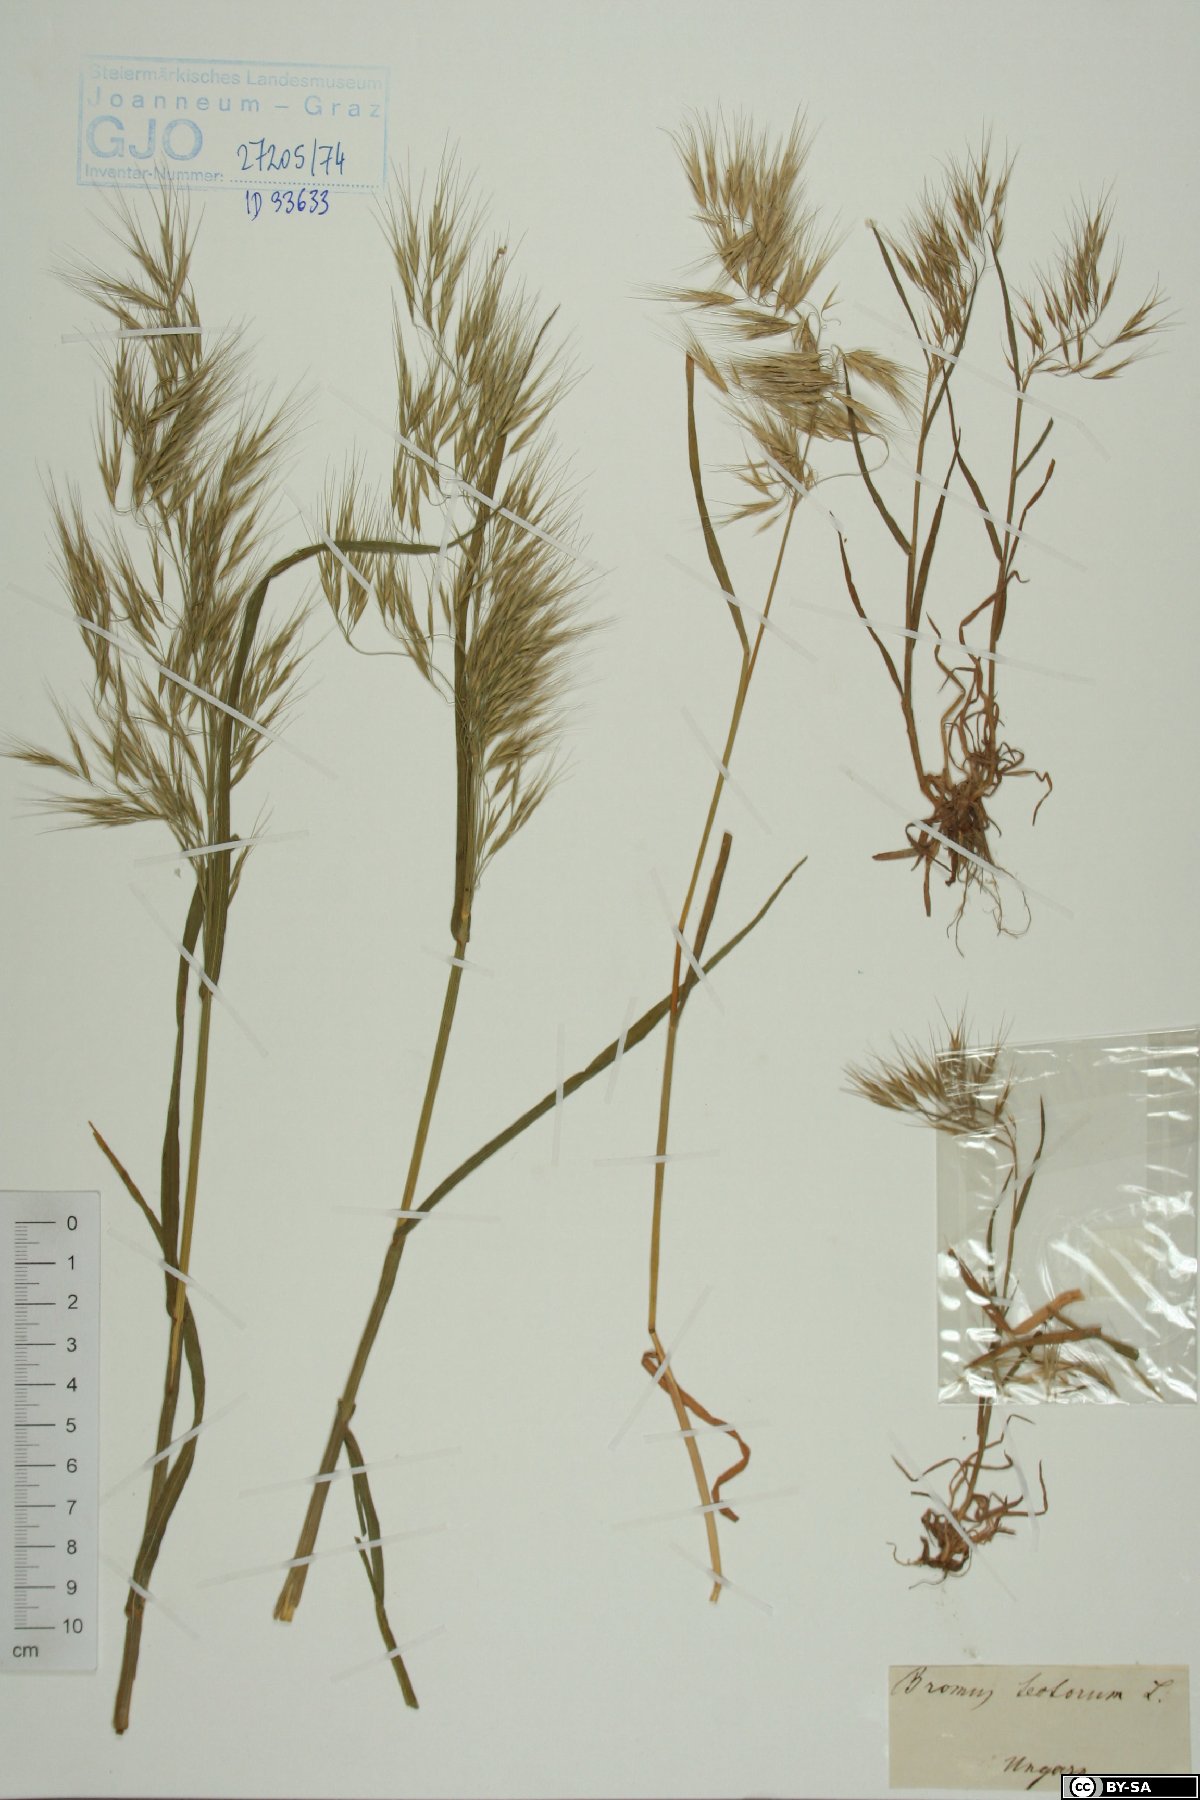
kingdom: Plantae
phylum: Tracheophyta
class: Liliopsida
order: Poales
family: Poaceae
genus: Bromus
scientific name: Bromus tectorum
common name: Cheatgrass
